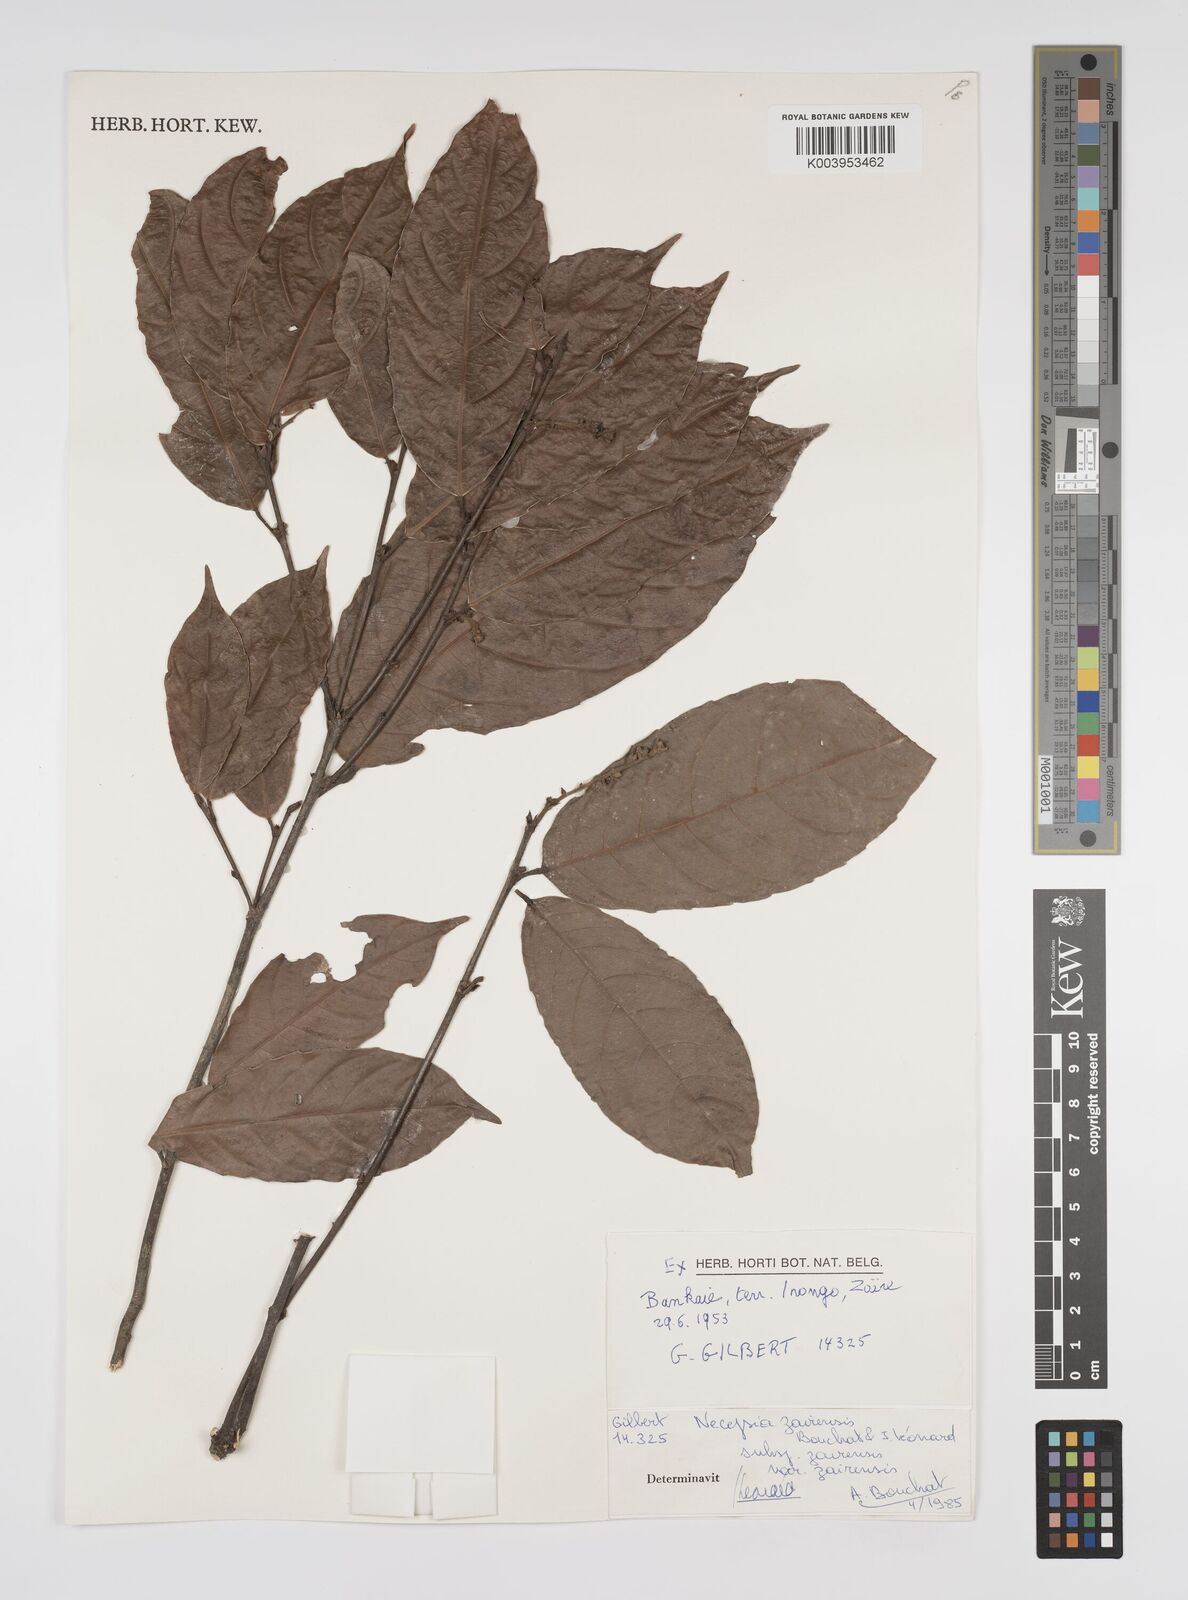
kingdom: Plantae
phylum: Tracheophyta
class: Magnoliopsida
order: Malpighiales
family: Euphorbiaceae
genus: Necepsia
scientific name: Necepsia zairensis
